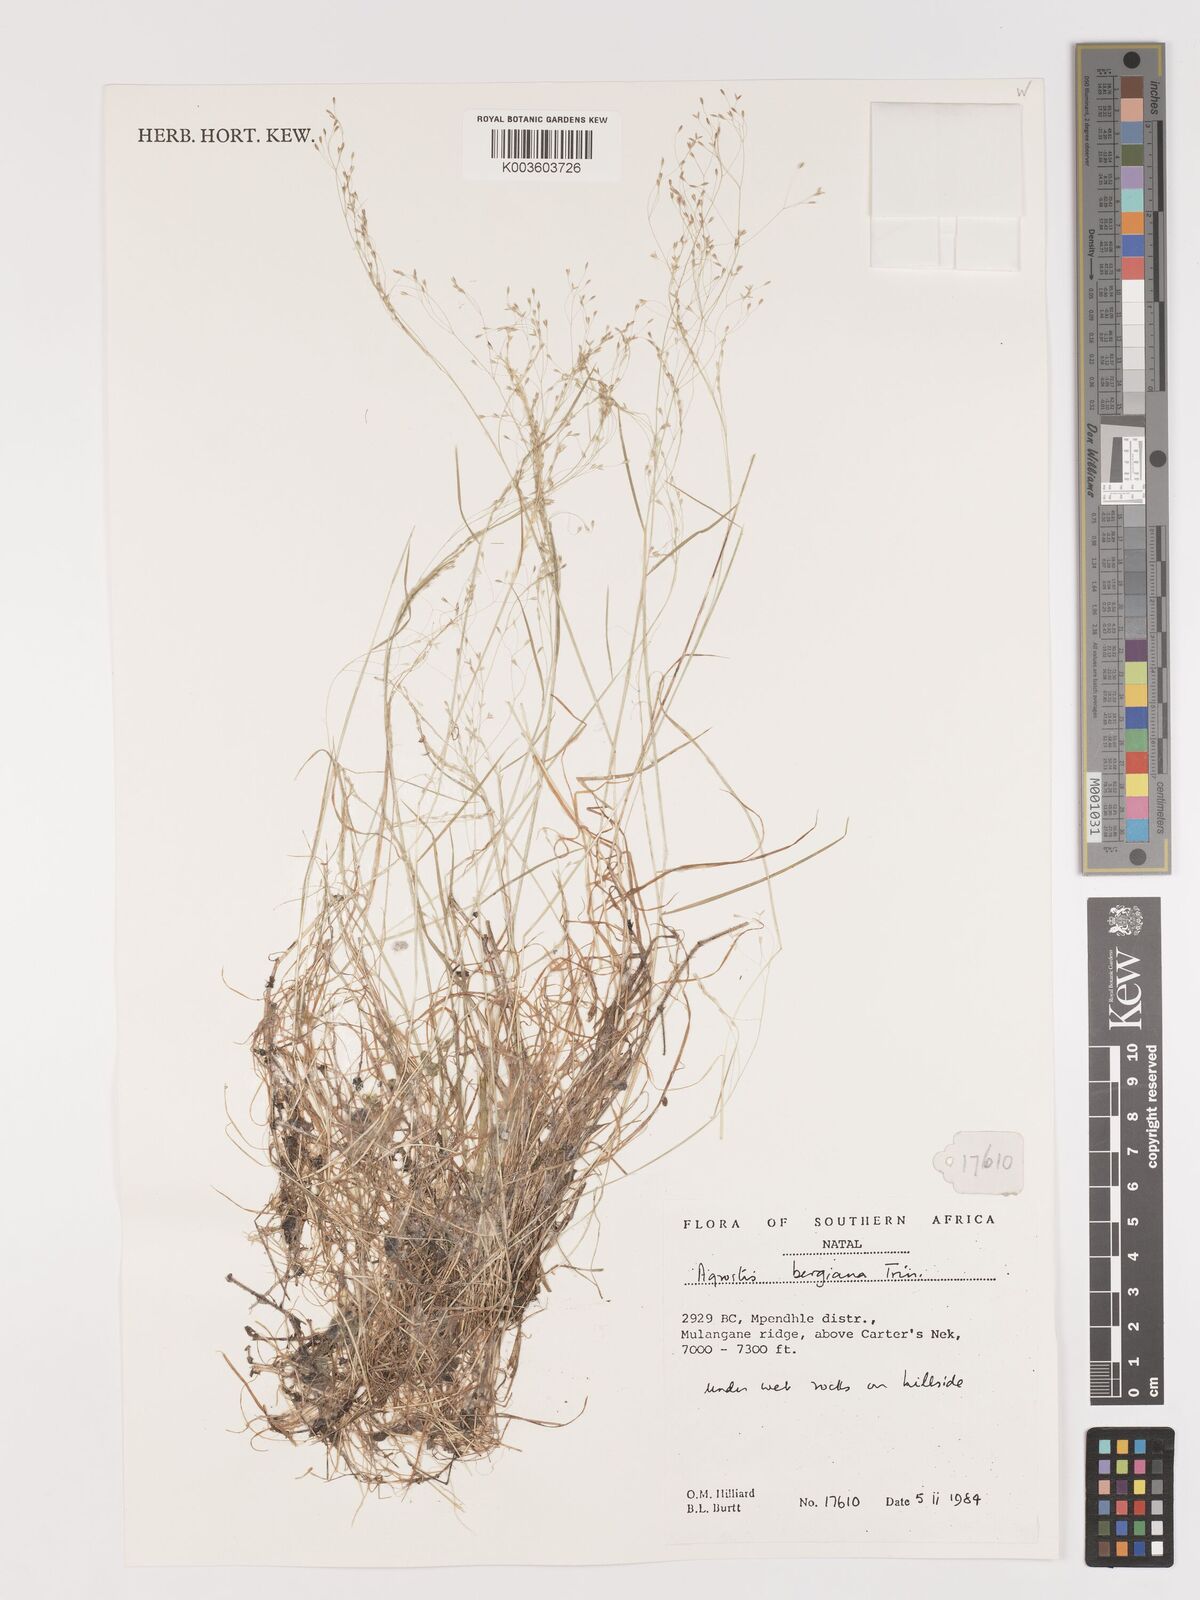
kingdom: Plantae
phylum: Tracheophyta
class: Liliopsida
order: Poales
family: Poaceae
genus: Agrostis
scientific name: Agrostis bergiana
